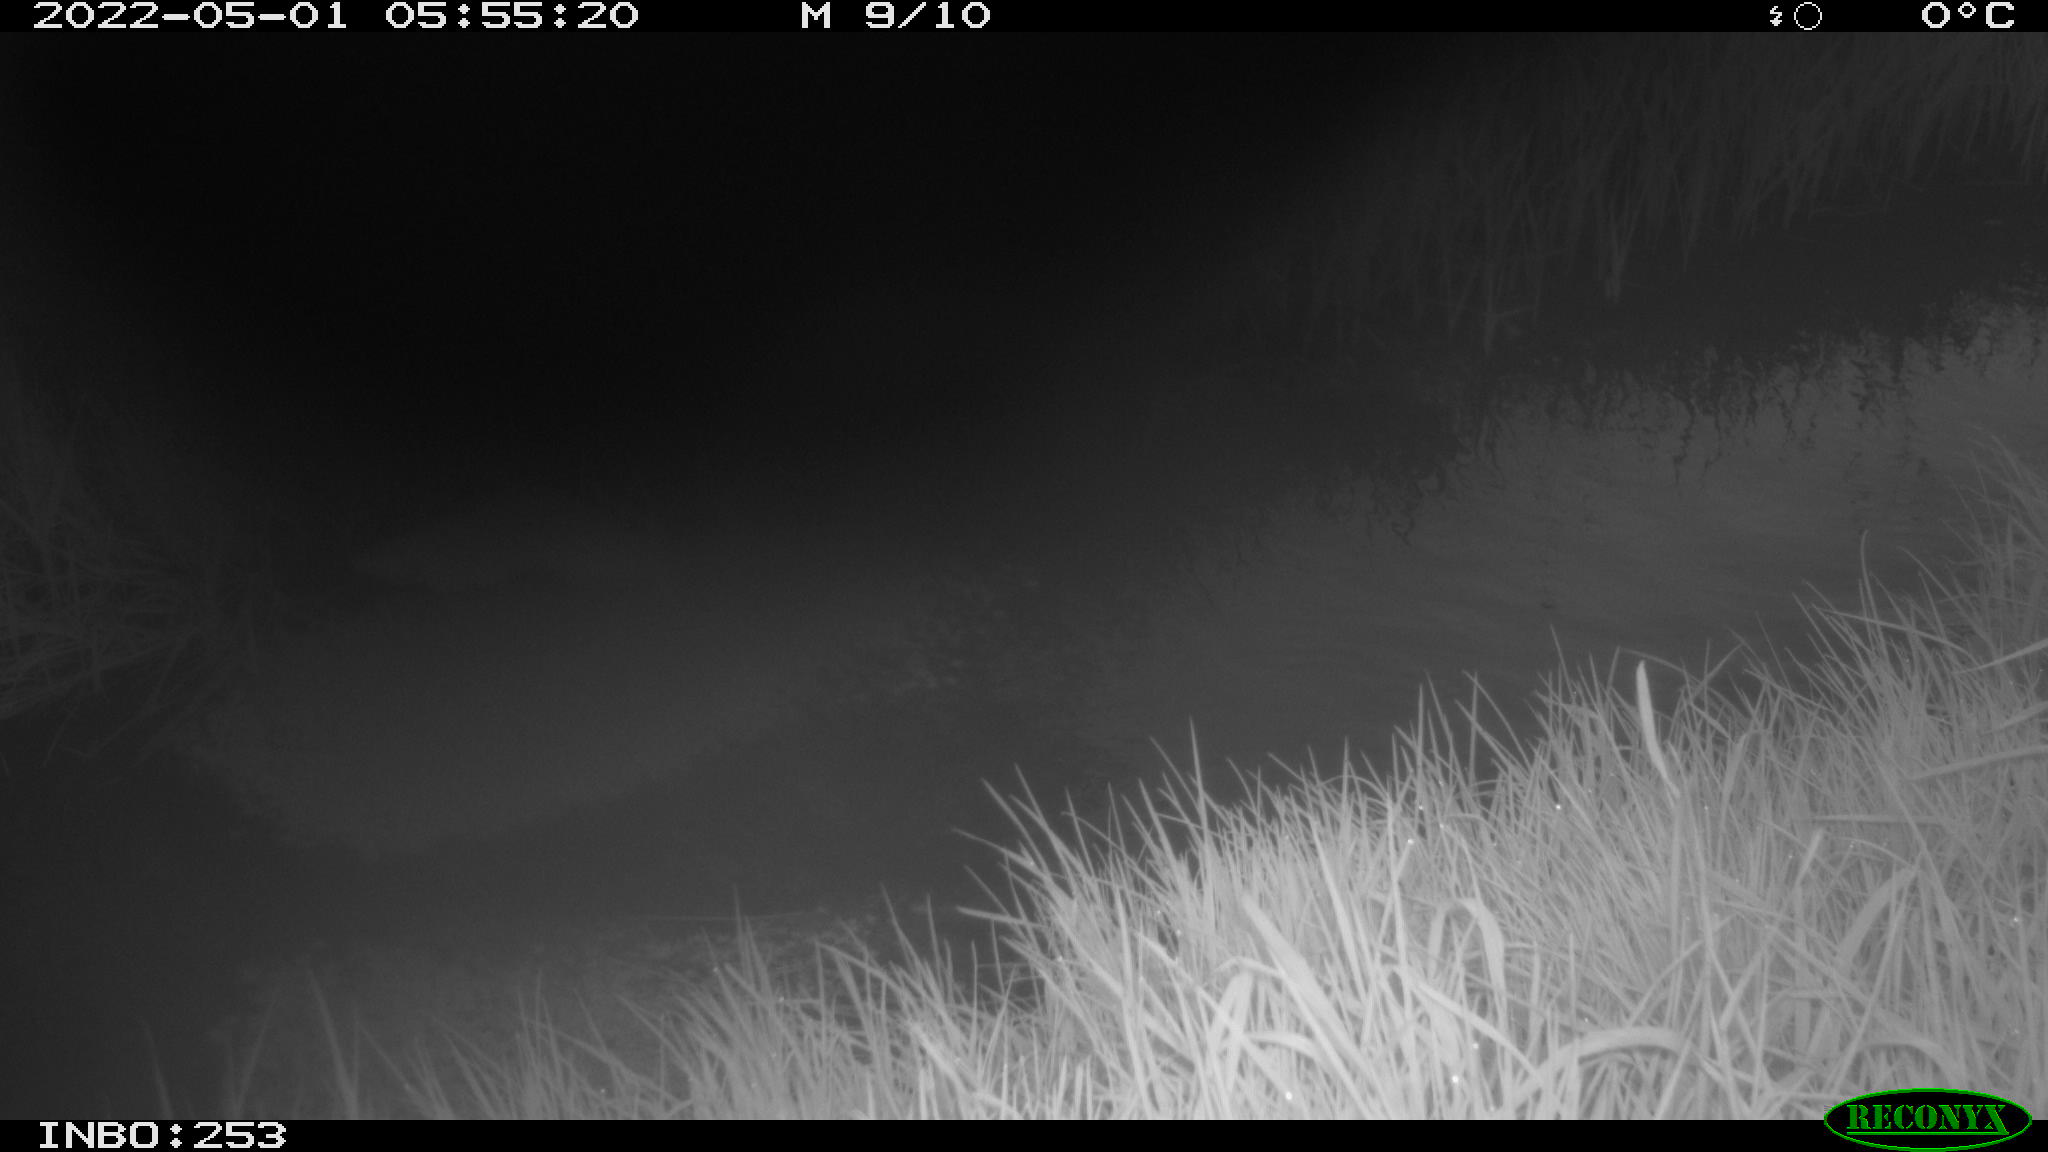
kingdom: Animalia
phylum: Chordata
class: Aves
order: Anseriformes
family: Anatidae
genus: Anas
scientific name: Anas platyrhynchos
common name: Mallard
